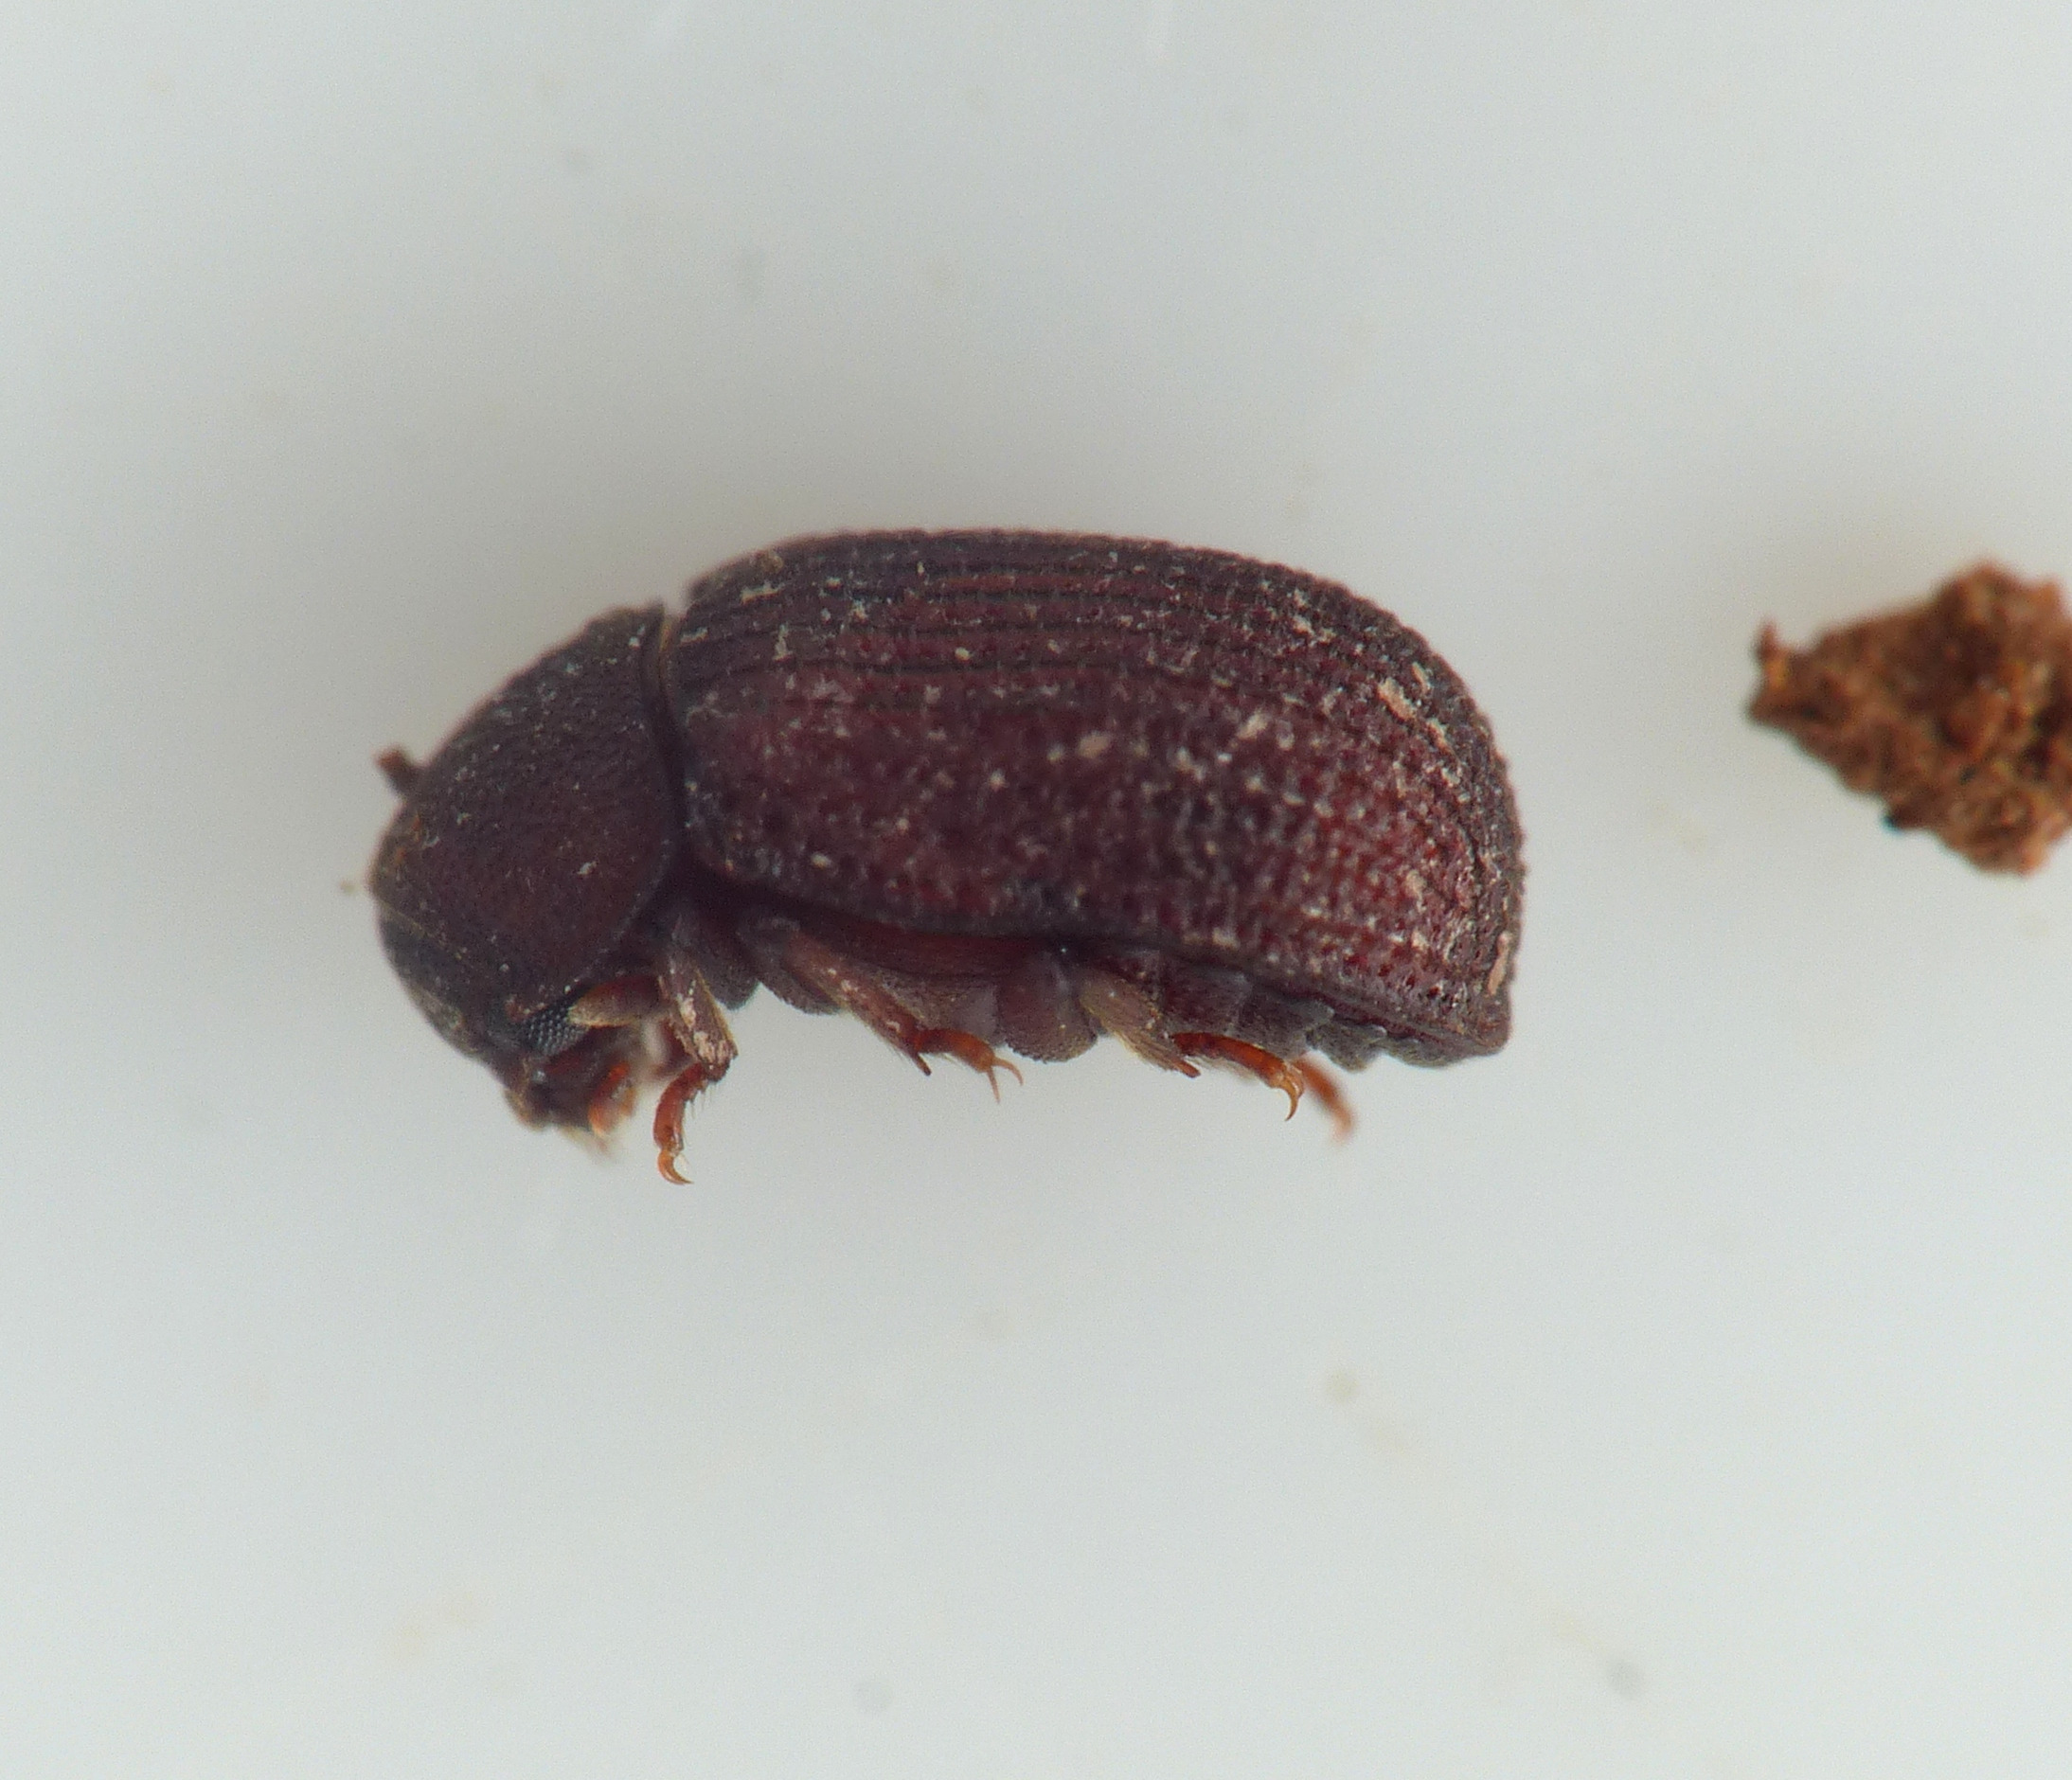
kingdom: Animalia
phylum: Arthropoda
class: Insecta
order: Coleoptera
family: Tenebrionidae
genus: Eledona
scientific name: Eledona agricola
